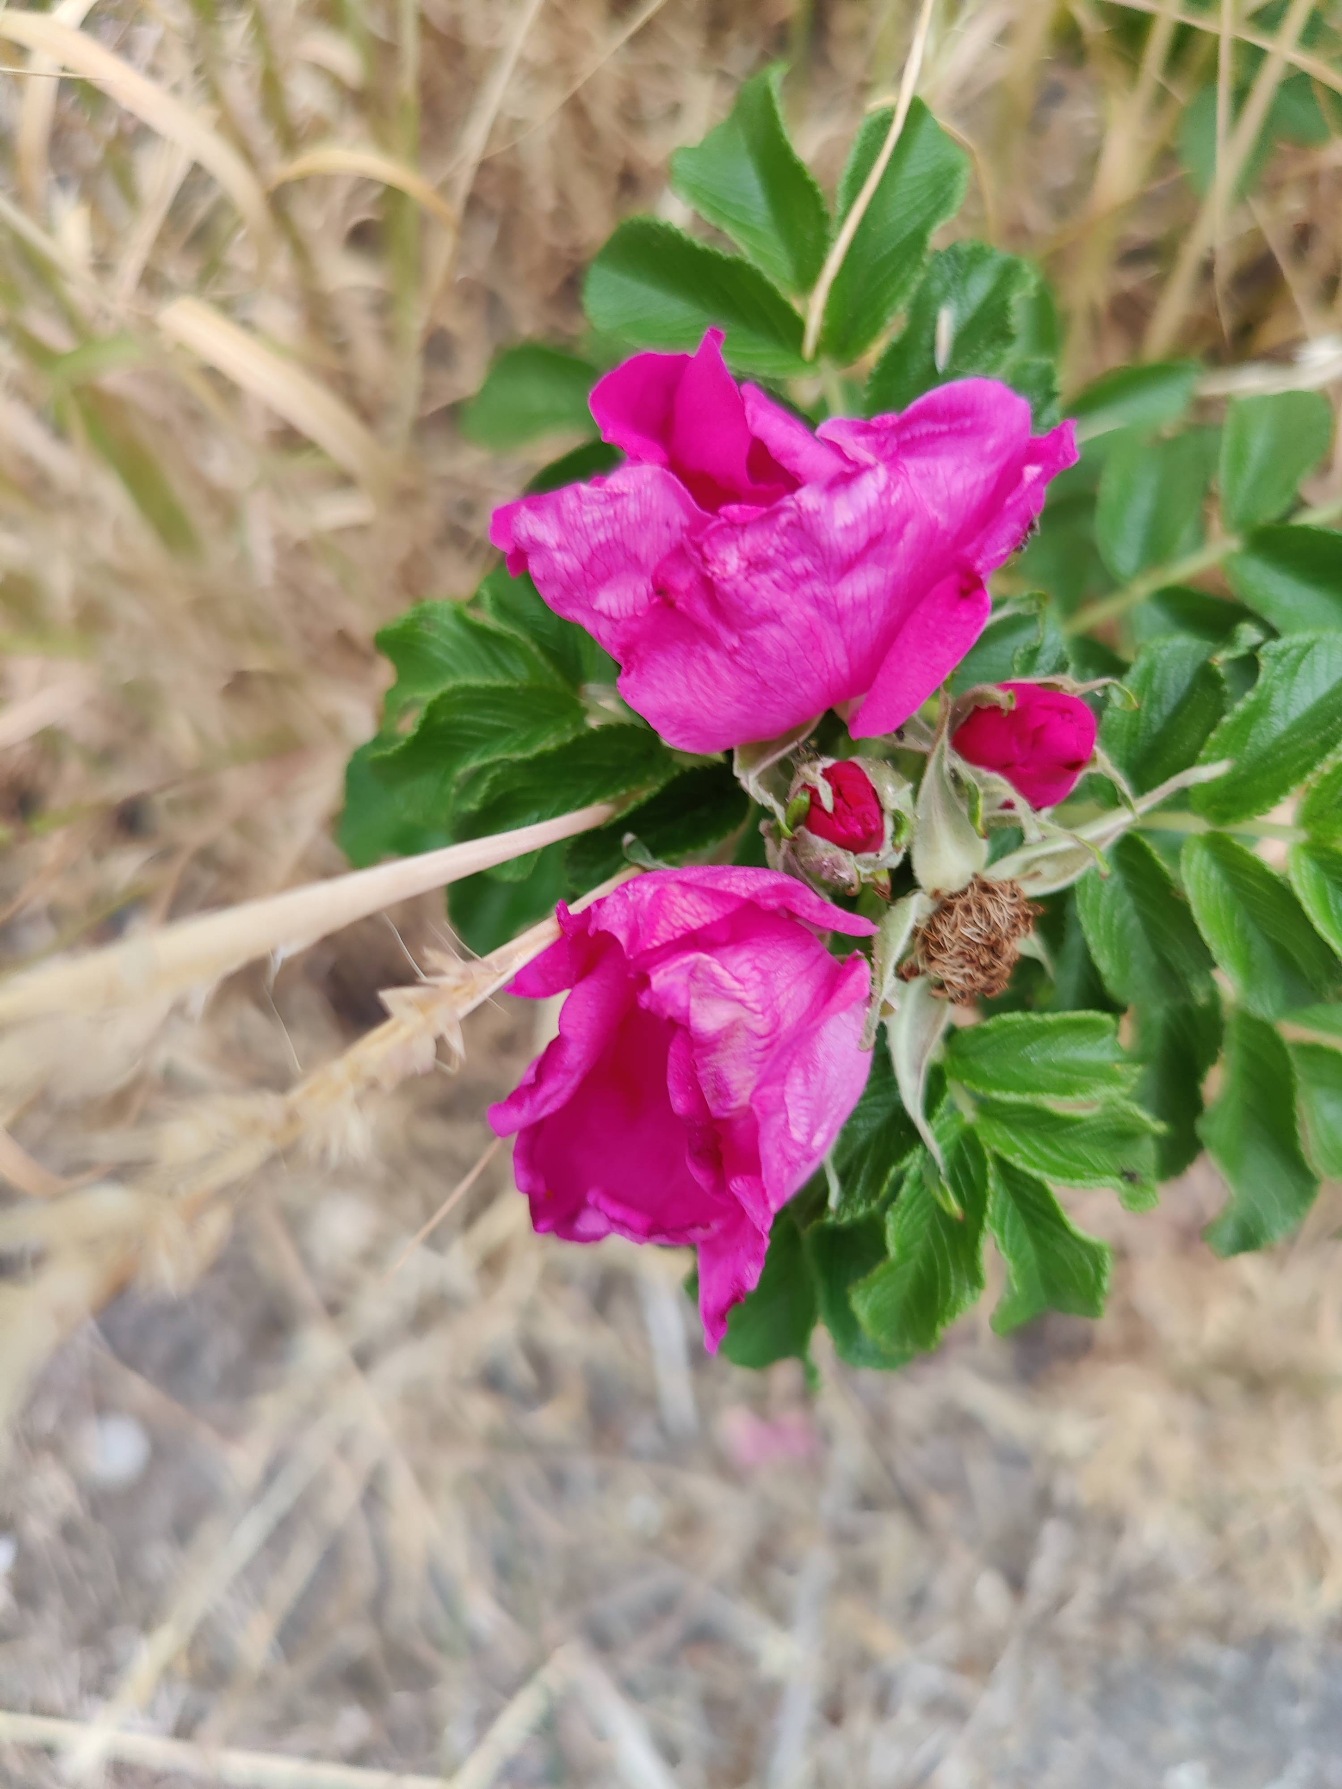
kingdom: Plantae
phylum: Tracheophyta
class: Magnoliopsida
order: Rosales
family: Rosaceae
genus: Rosa
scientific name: Rosa rugosa
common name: Rynket rose
